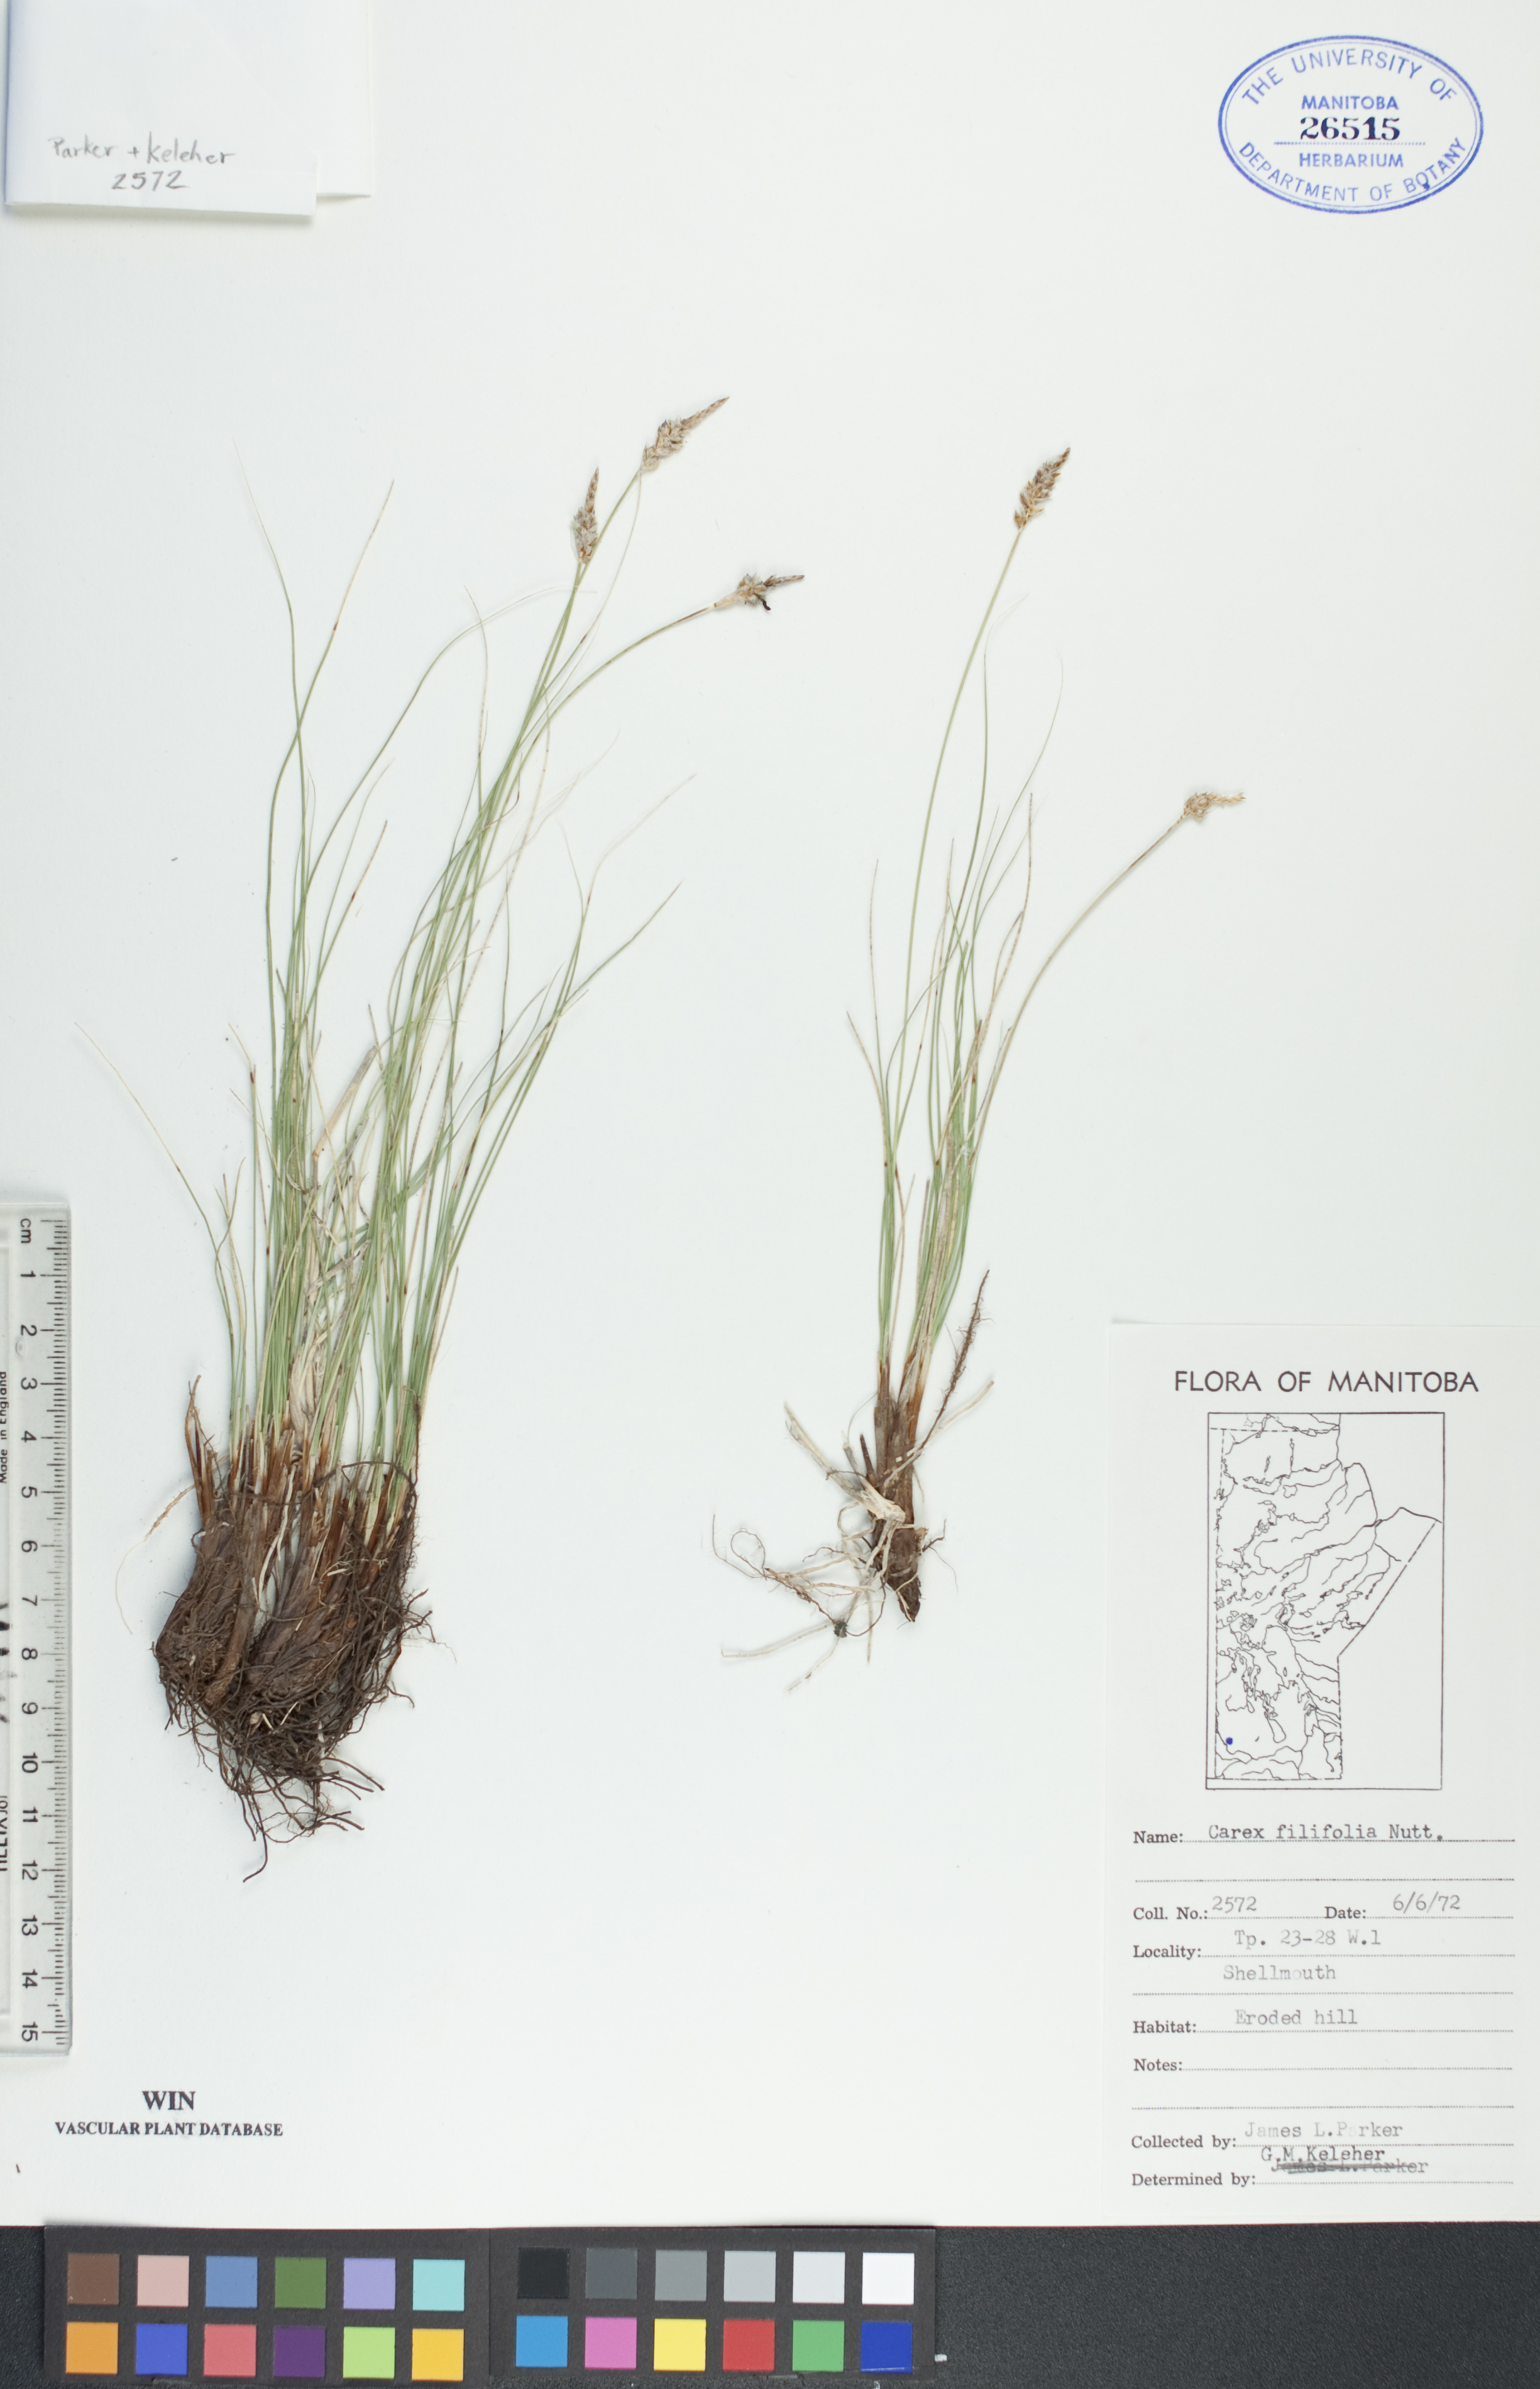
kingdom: Plantae
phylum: Tracheophyta
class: Liliopsida
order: Poales
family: Cyperaceae
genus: Carex
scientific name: Carex filifolia
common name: Threadleaf sedge
